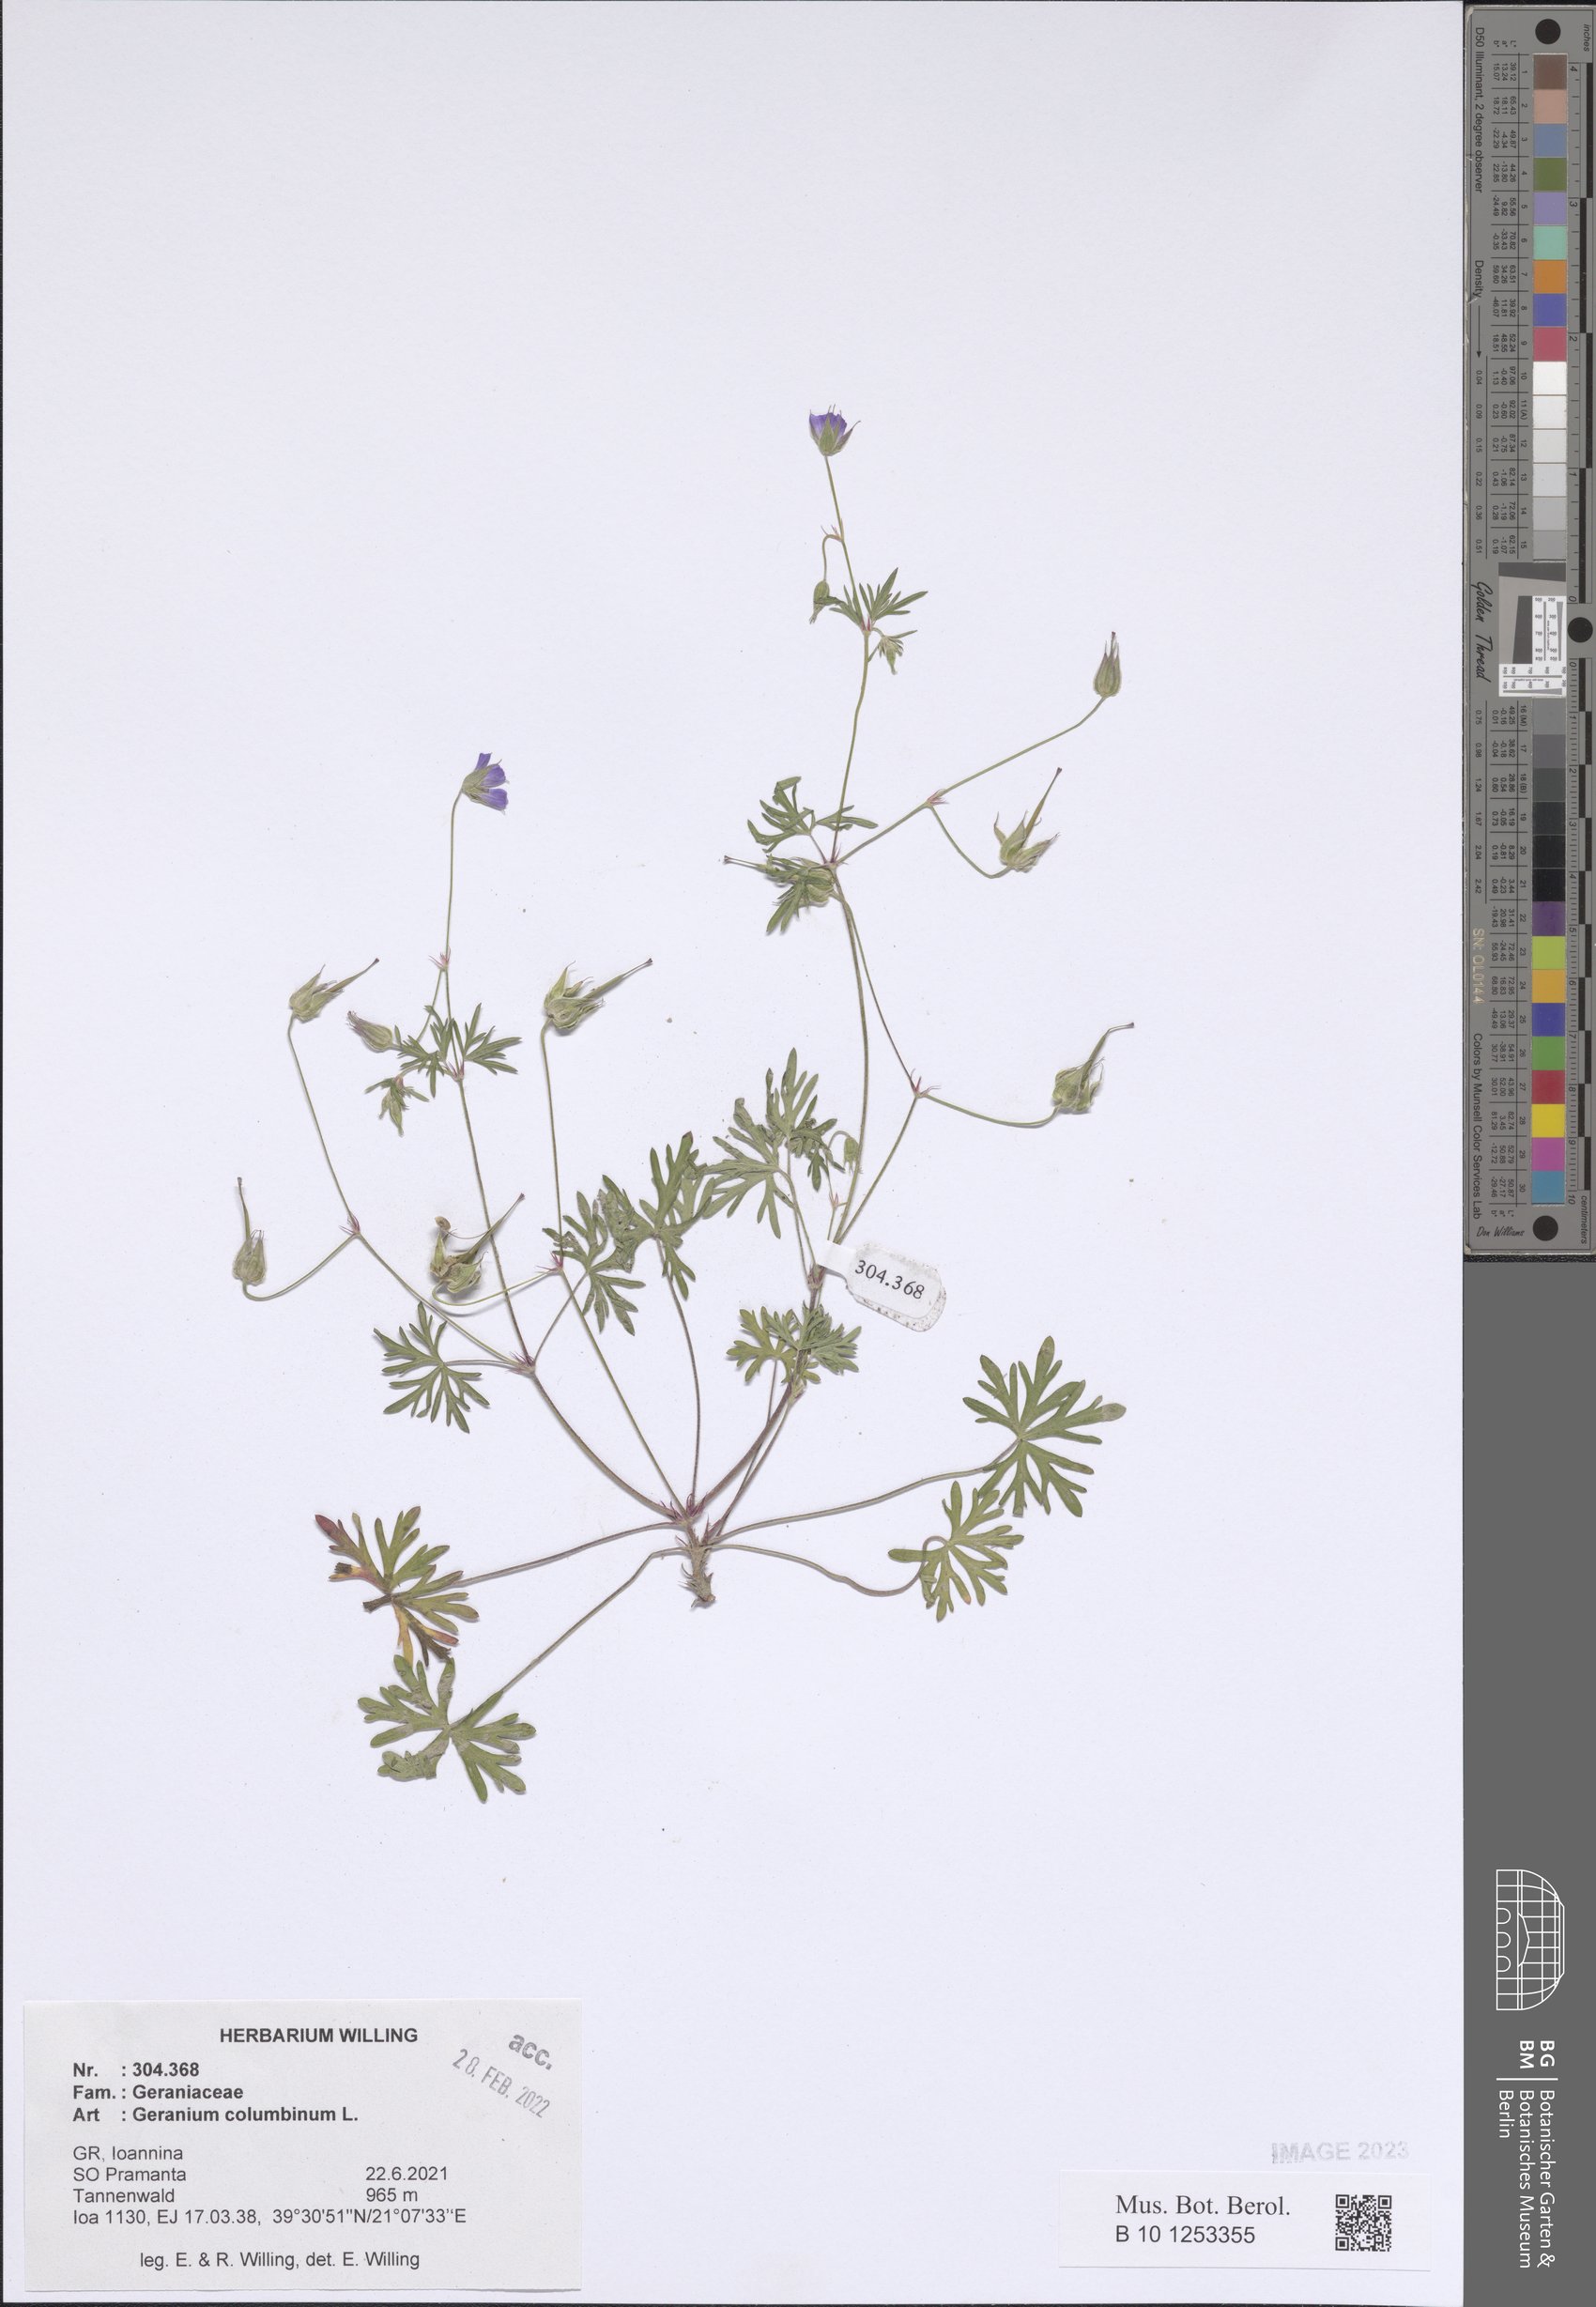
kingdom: Plantae
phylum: Tracheophyta
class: Magnoliopsida
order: Geraniales
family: Geraniaceae
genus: Geranium
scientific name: Geranium columbinum
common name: Long-stalked crane's-bill
